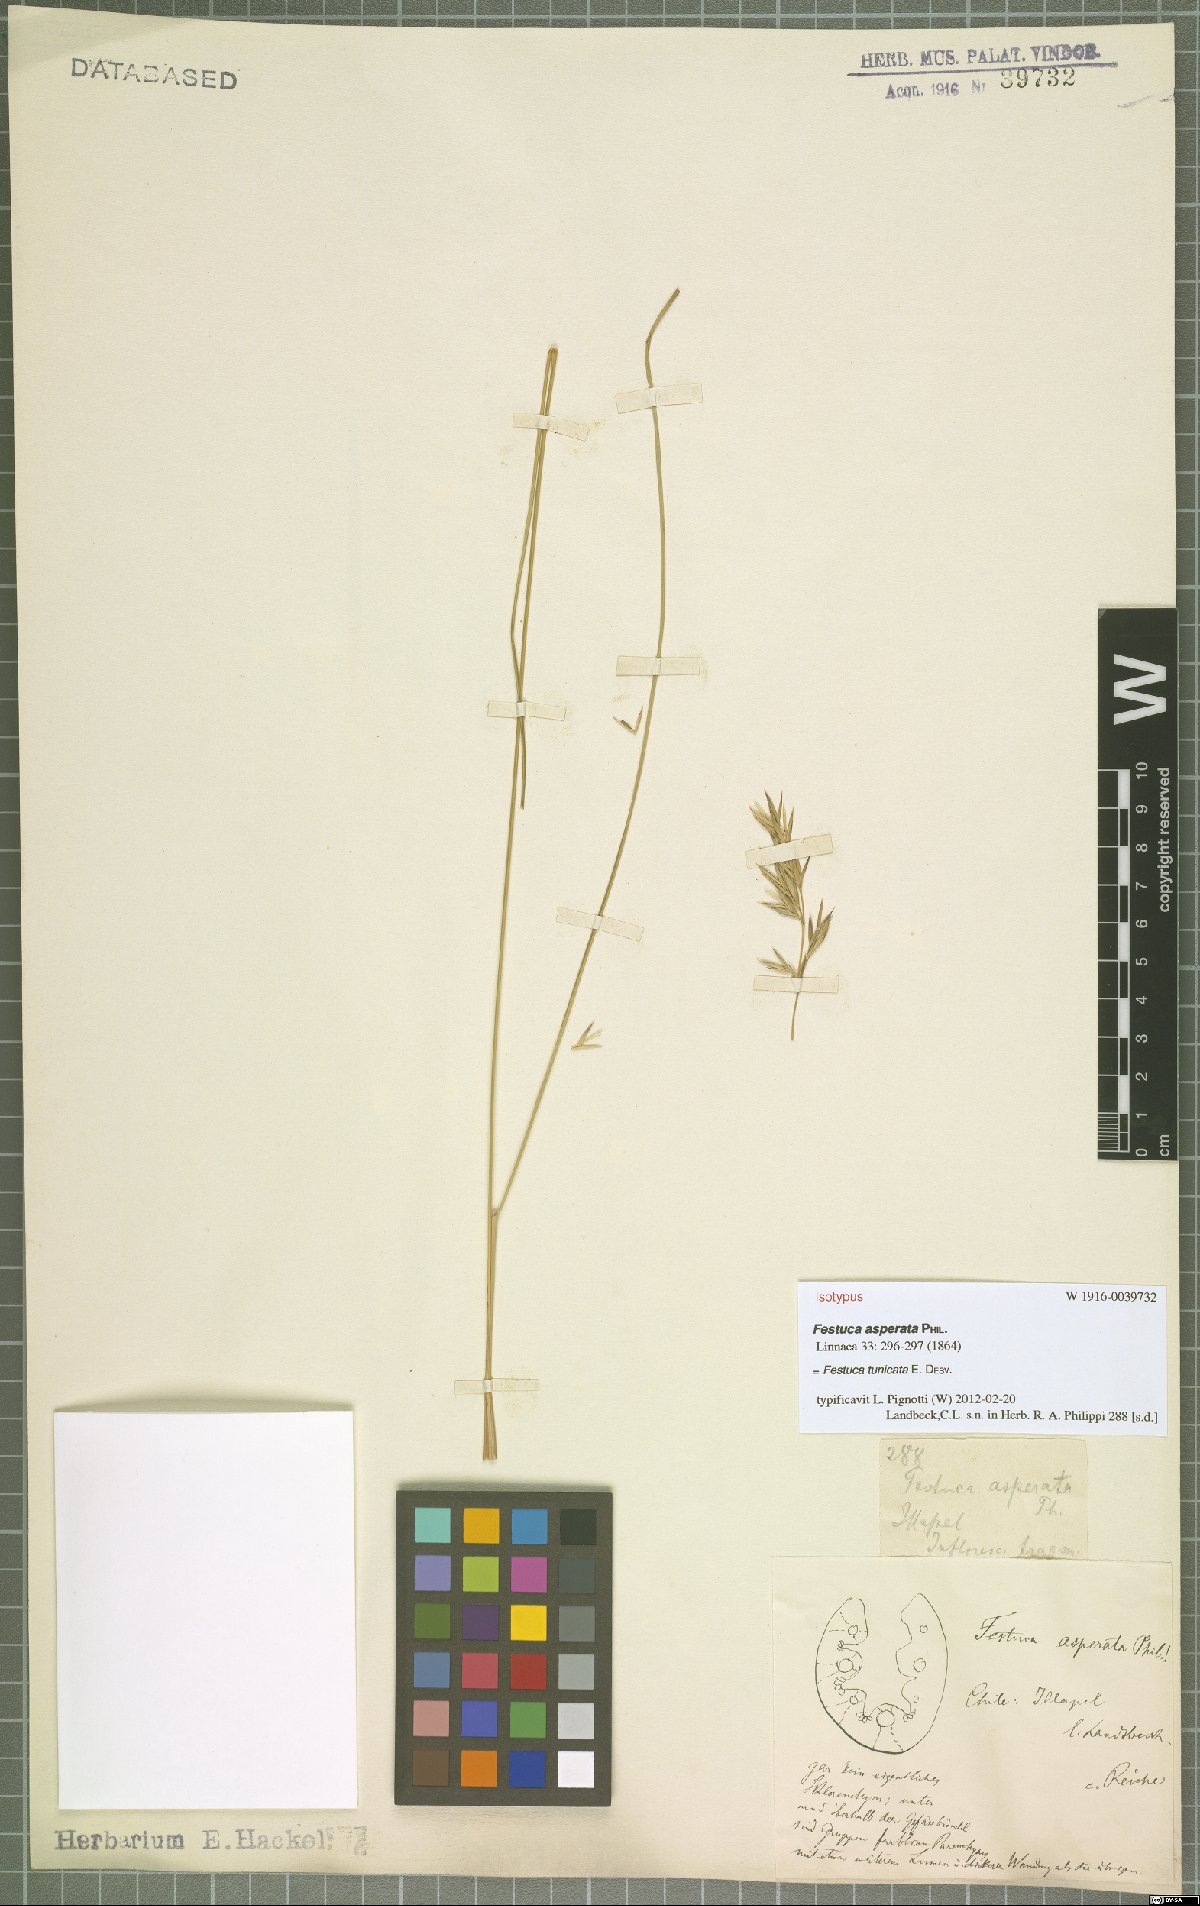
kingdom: Plantae
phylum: Tracheophyta
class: Liliopsida
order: Poales
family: Poaceae
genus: Festuca
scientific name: Festuca acanthophylla
